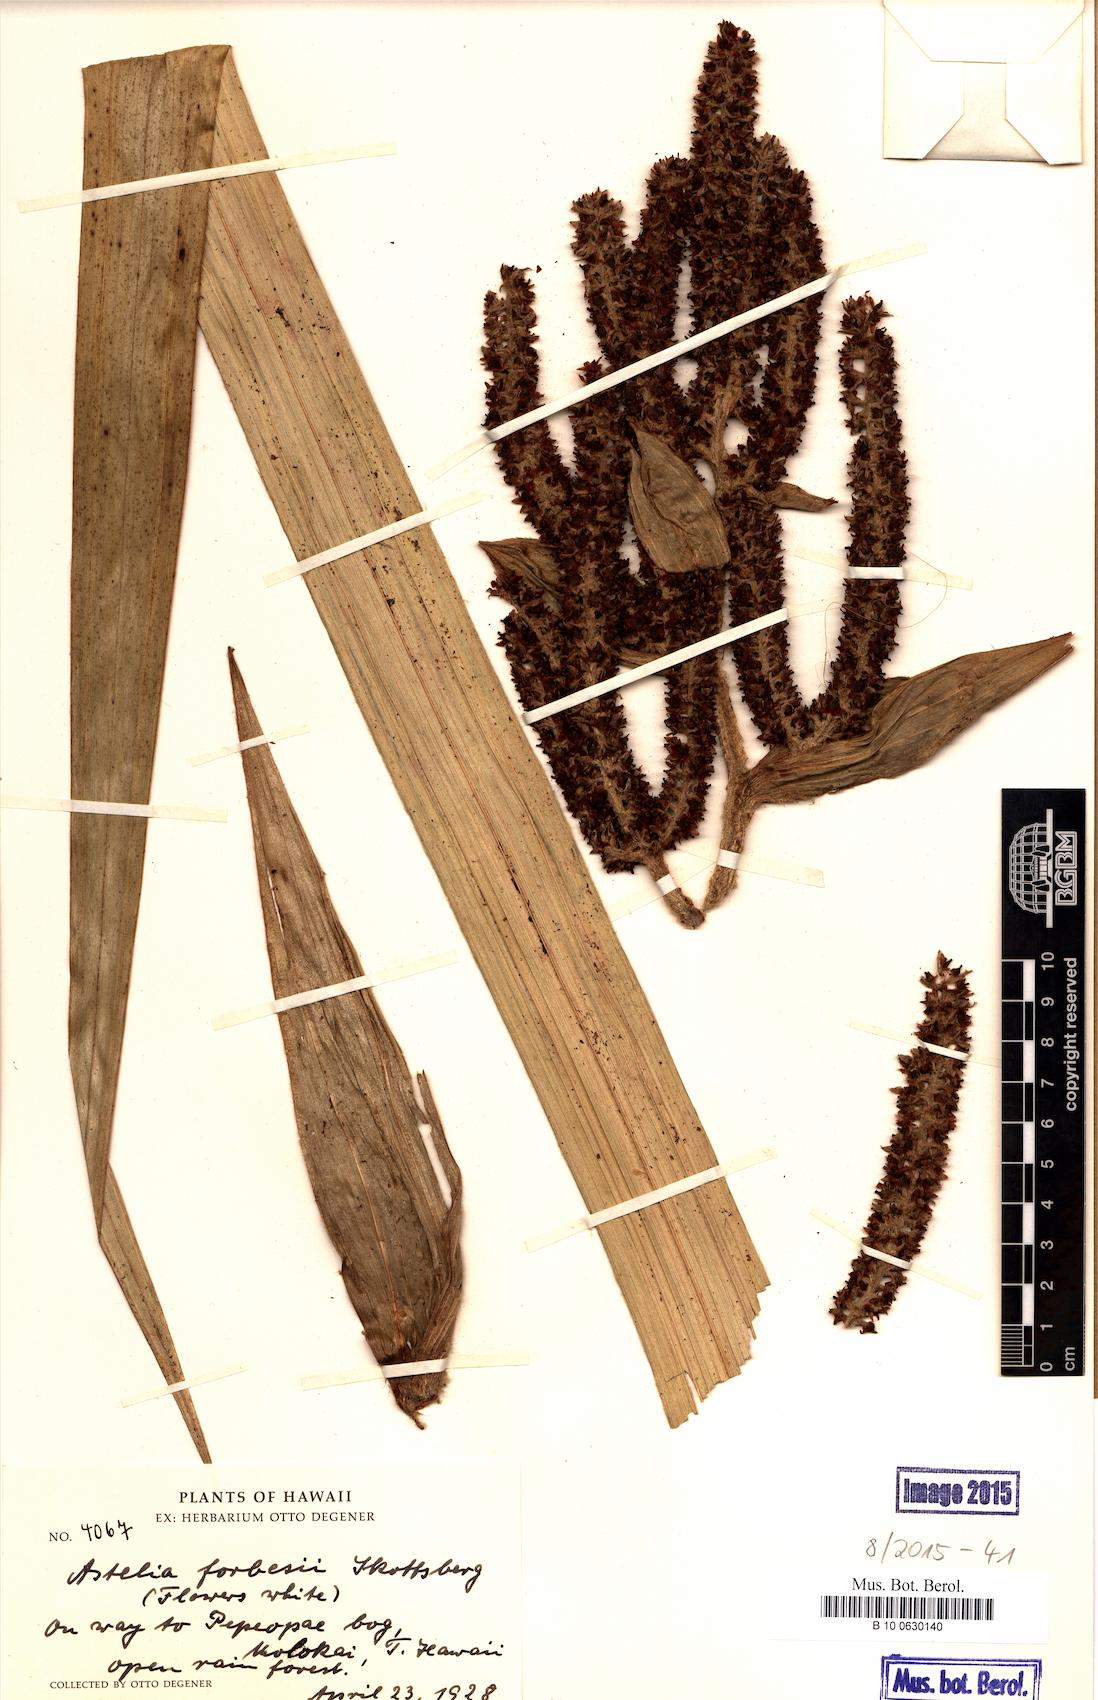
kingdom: Plantae
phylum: Tracheophyta
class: Magnoliopsida
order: Sapindales
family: Sapindaceae
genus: Sapindus
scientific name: Sapindus saponaria
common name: Wingleaf soapberry
